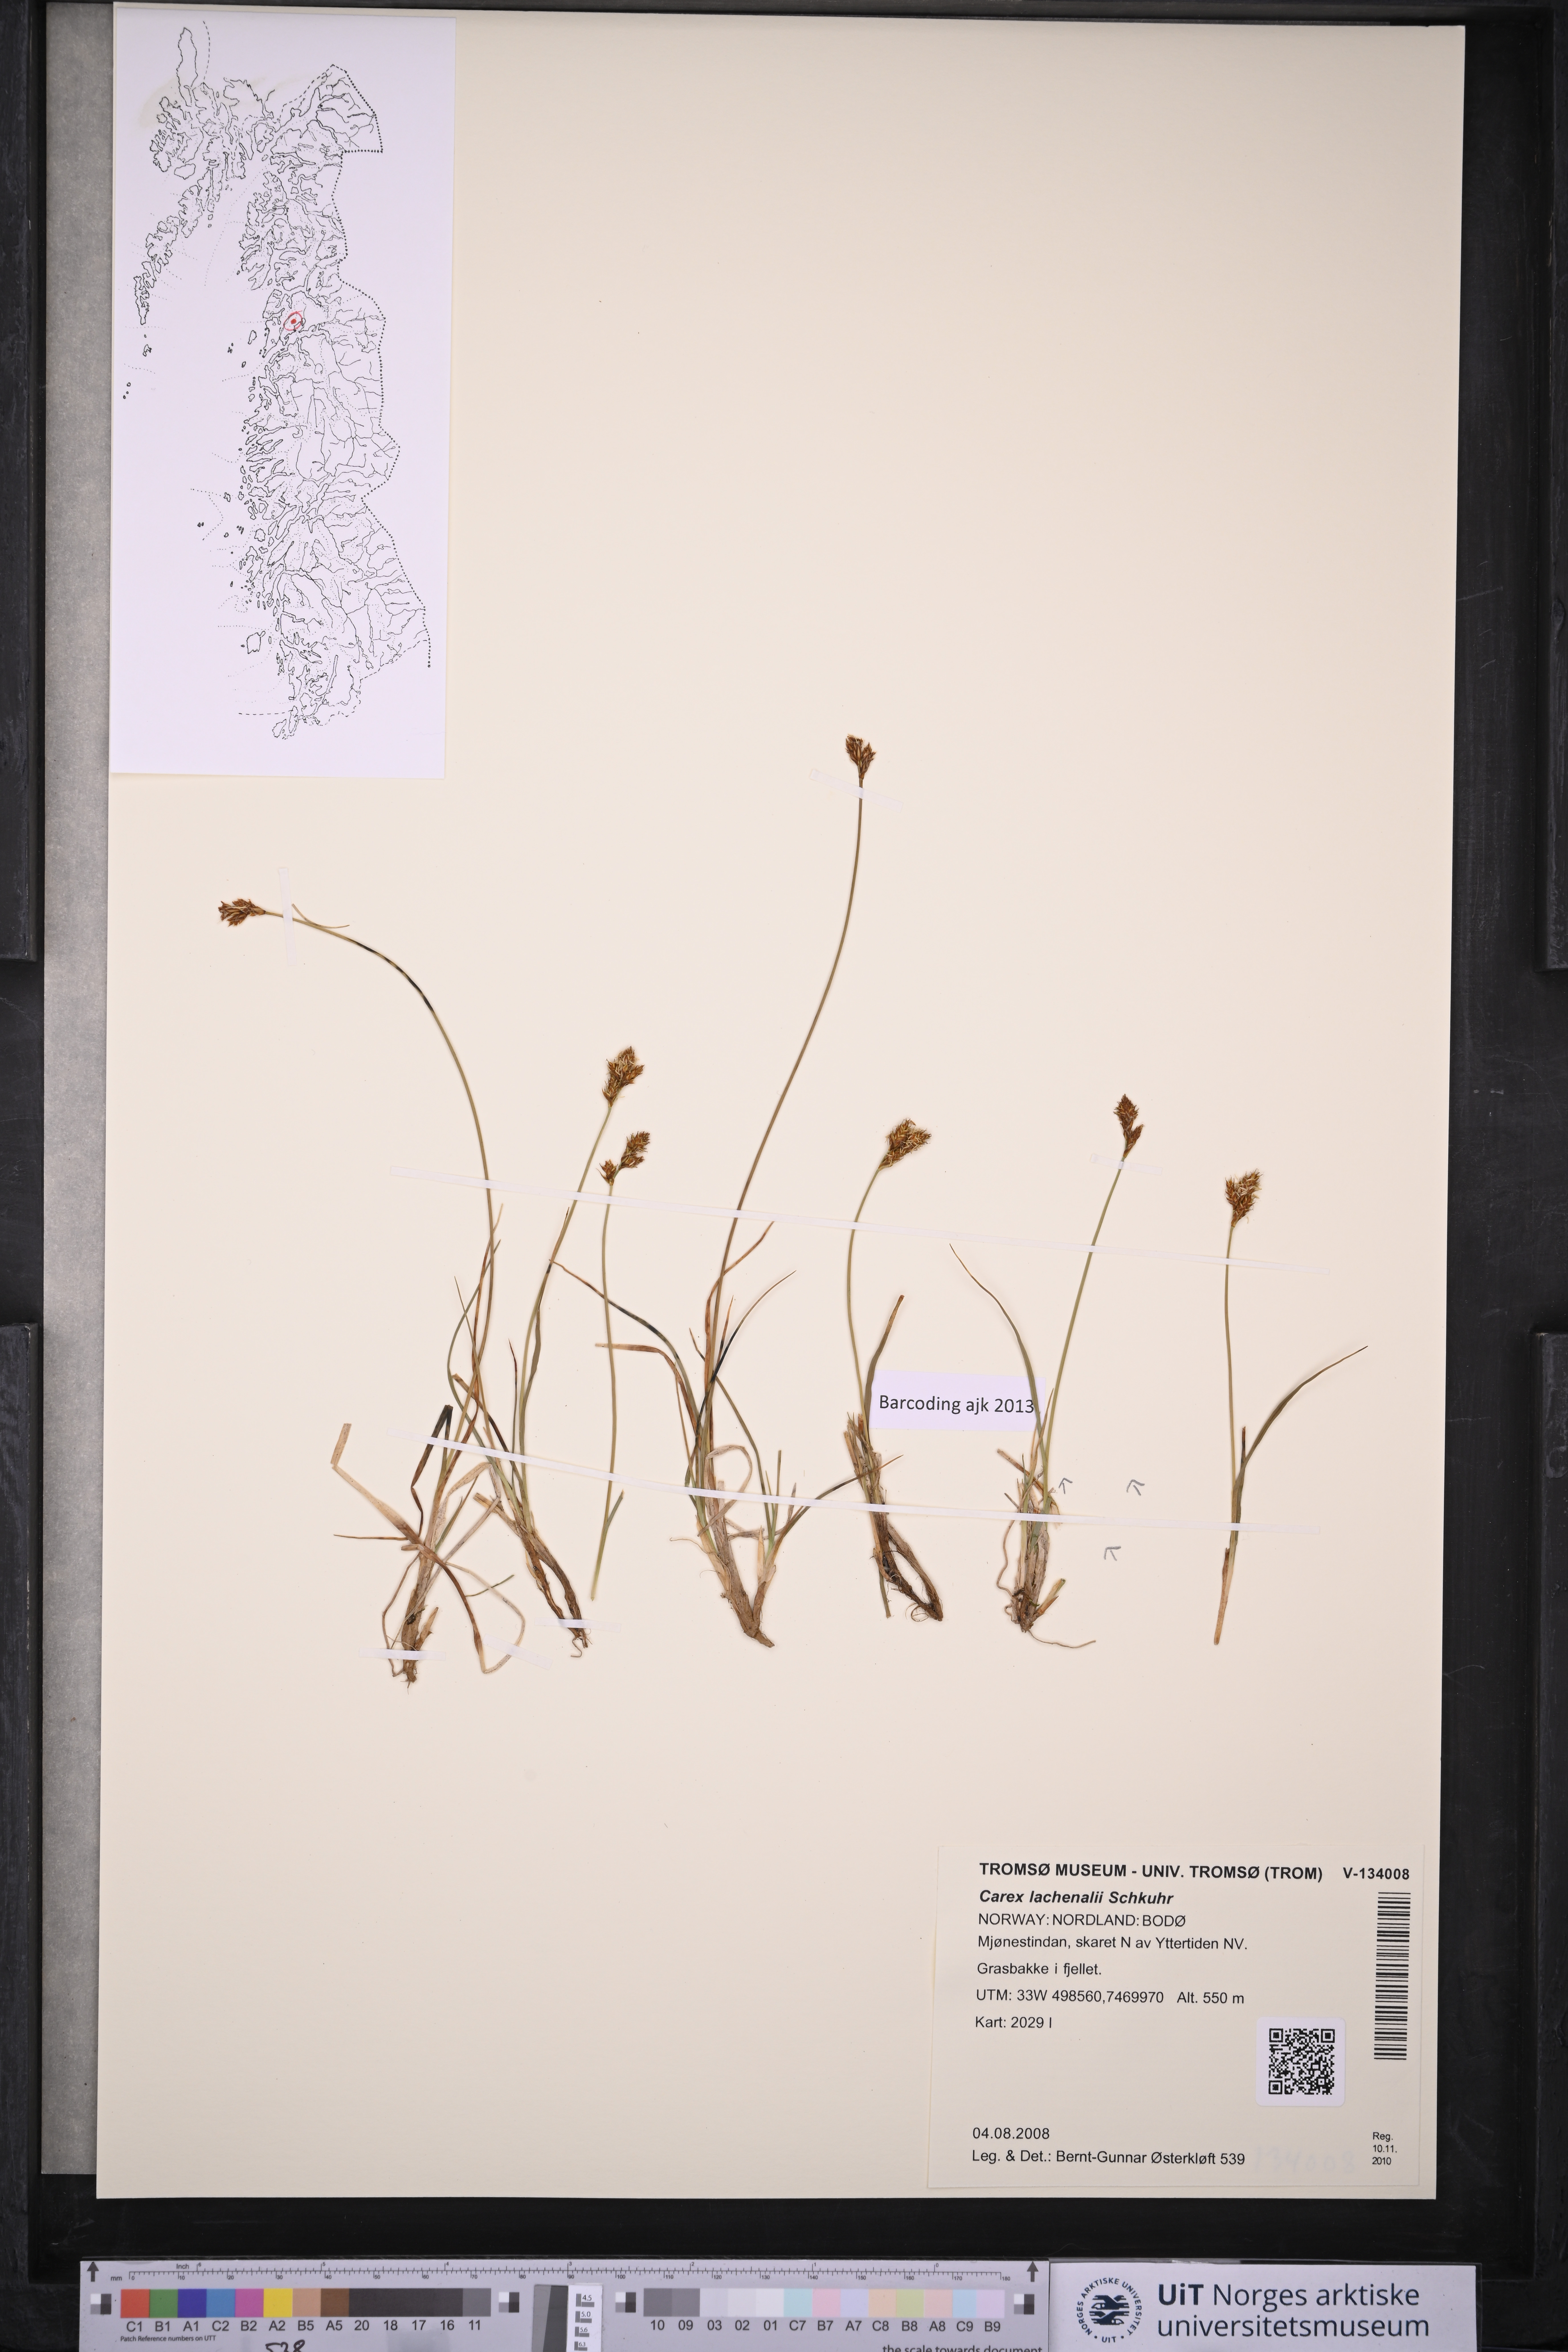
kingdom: Plantae
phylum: Tracheophyta
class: Liliopsida
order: Poales
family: Cyperaceae
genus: Carex
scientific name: Carex lachenalii
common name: Hare's-foot sedge
